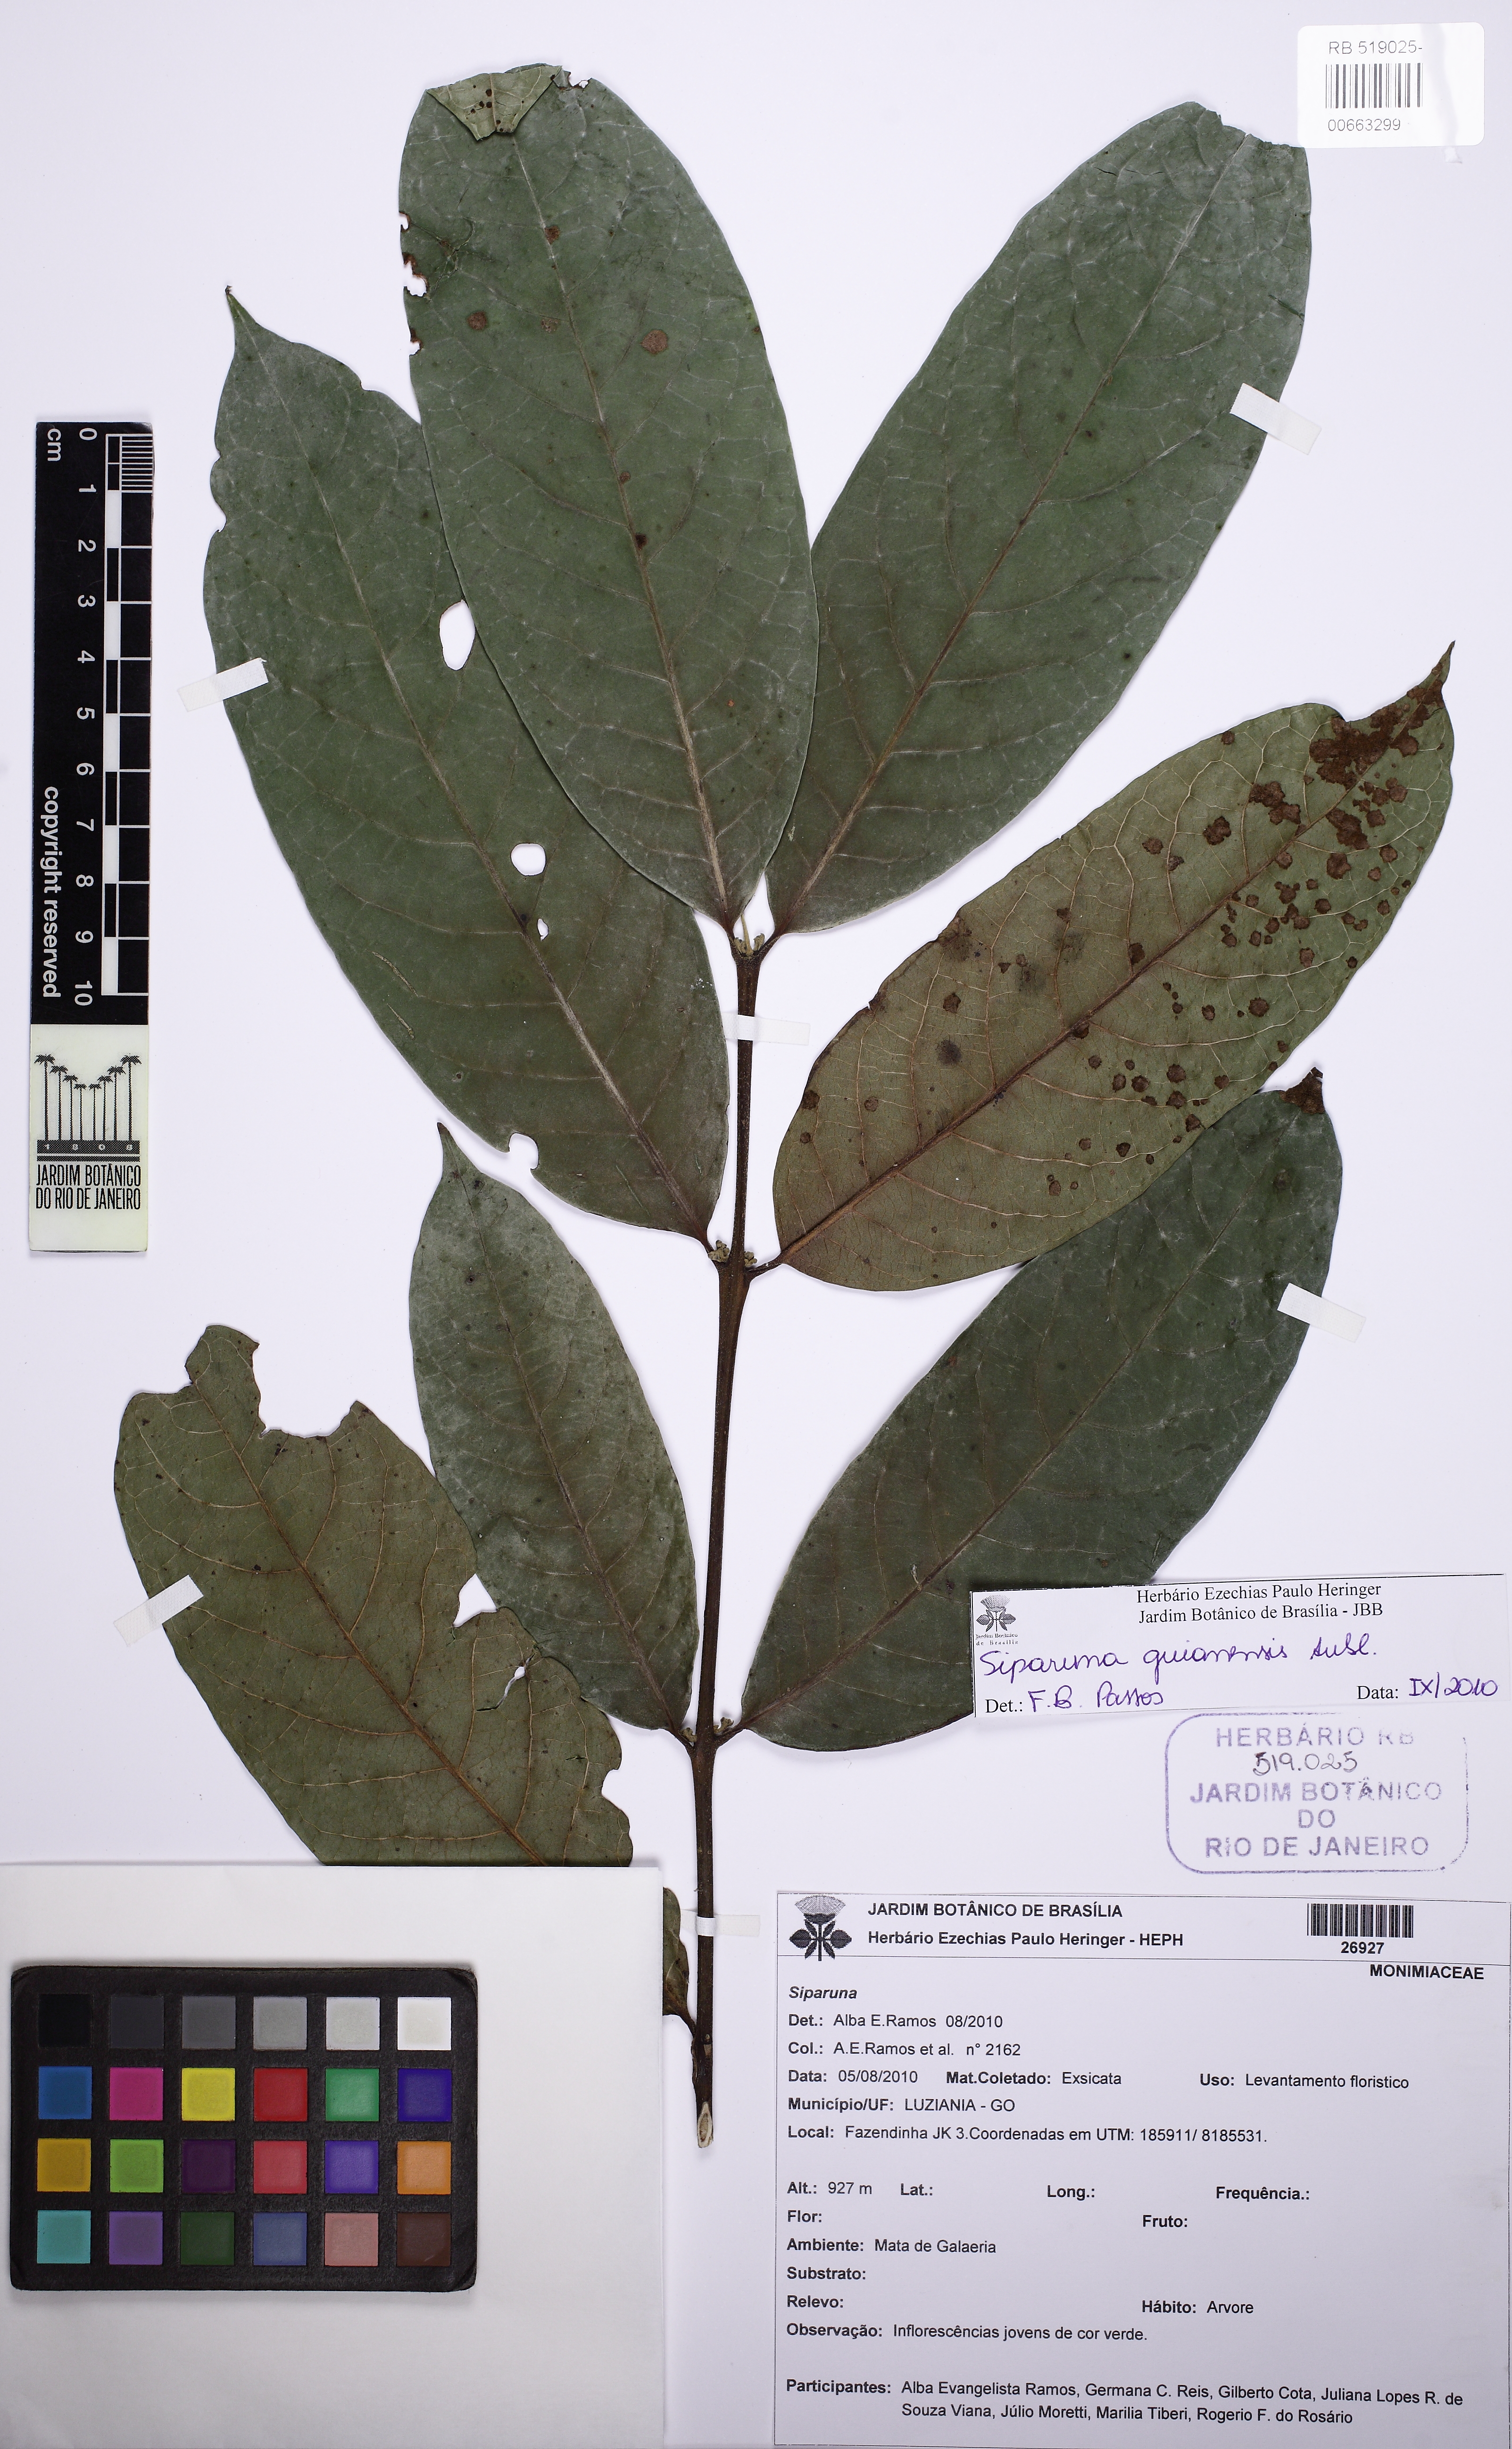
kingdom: Plantae
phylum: Tracheophyta
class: Magnoliopsida
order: Laurales
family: Siparunaceae
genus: Siparuna
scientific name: Siparuna guianensis
